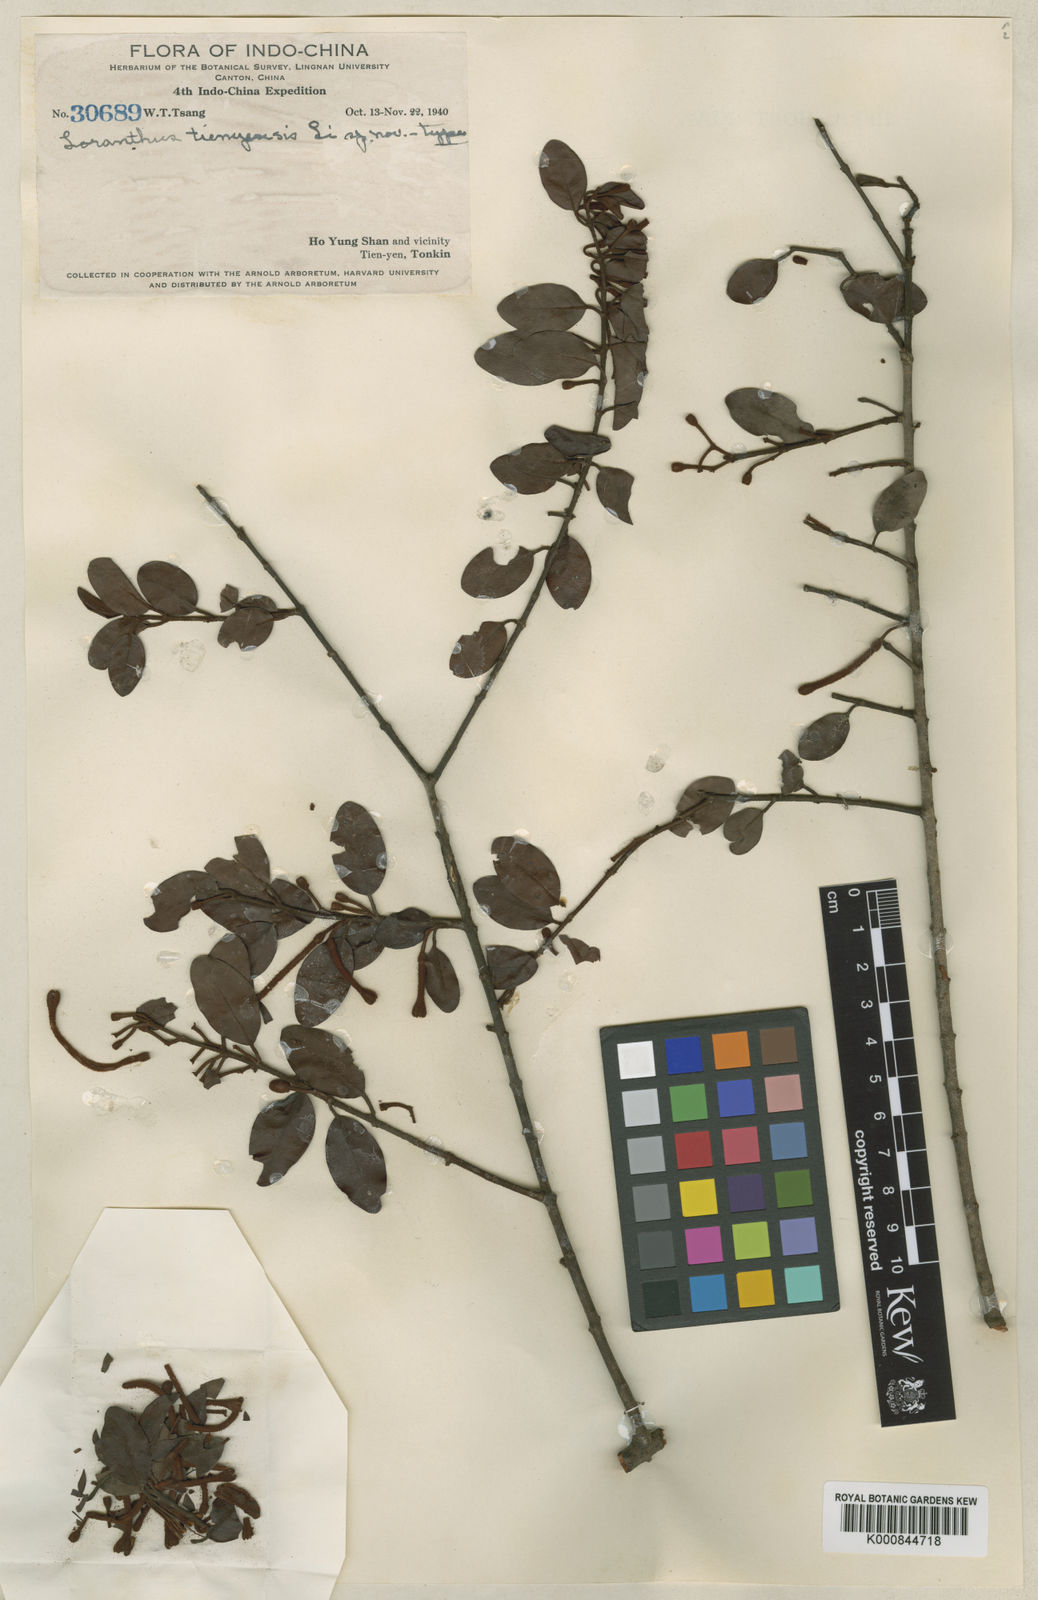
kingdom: Plantae
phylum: Tracheophyta
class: Magnoliopsida
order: Santalales
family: Loranthaceae
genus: Scurrula
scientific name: Scurrula
